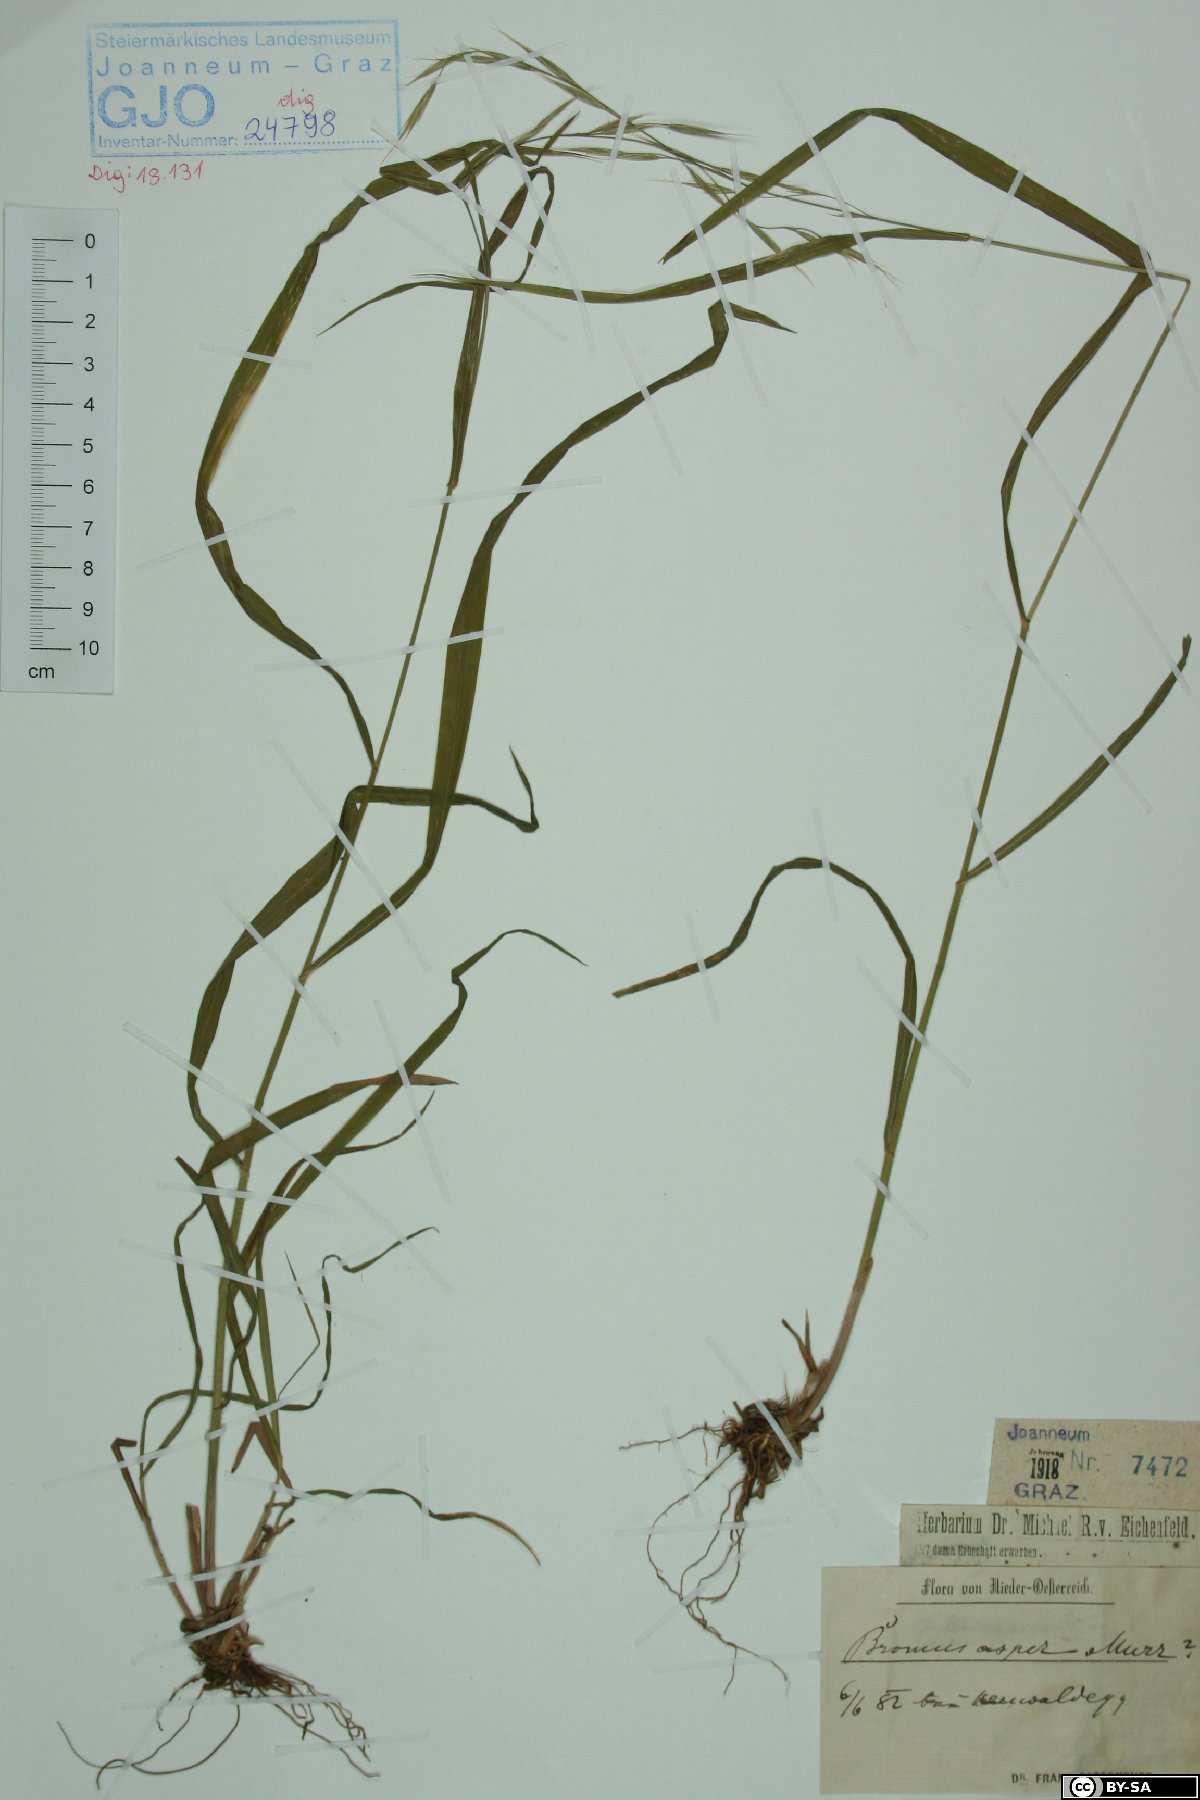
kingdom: Plantae
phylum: Tracheophyta
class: Liliopsida
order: Poales
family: Poaceae
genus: Bromus
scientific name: Bromus ramosus
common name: Hairy brome
